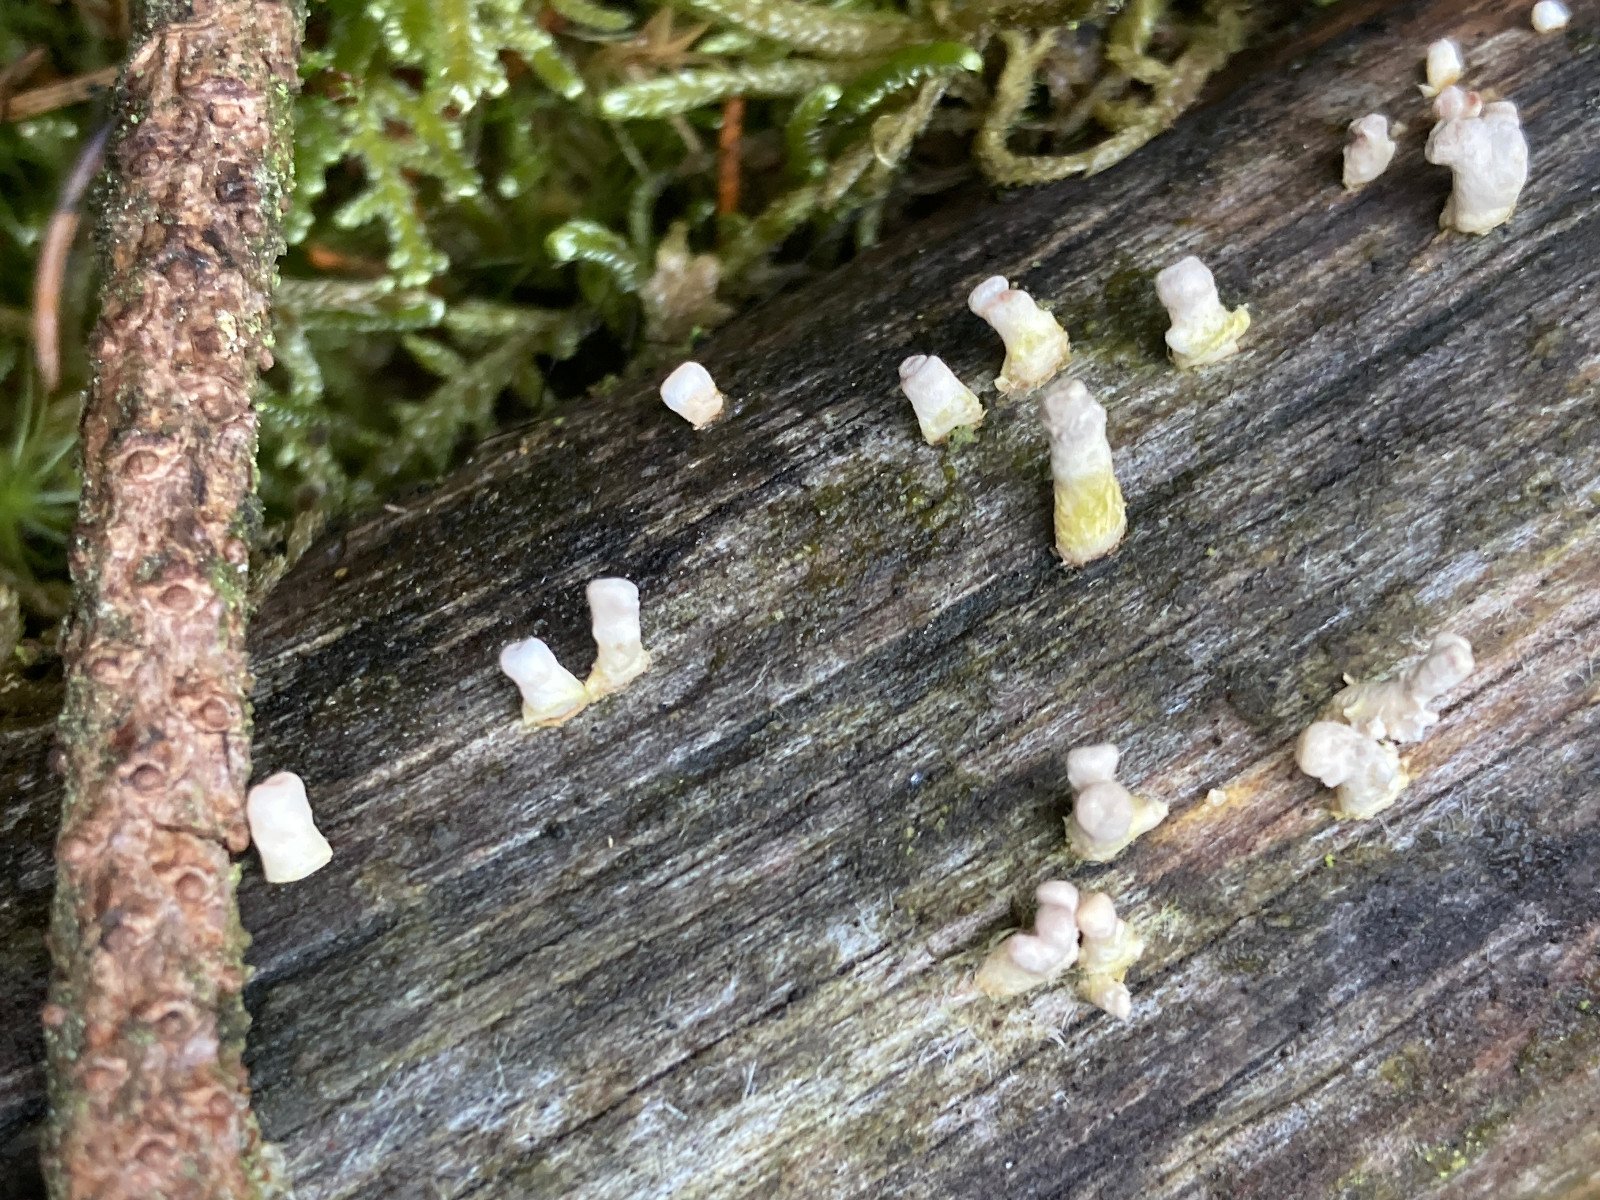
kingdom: Fungi
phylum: Basidiomycota
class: Dacrymycetes
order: Dacrymycetales
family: Dacrymycetaceae
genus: Ditiola
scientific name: Ditiola radicata
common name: rod-tåresvamp
